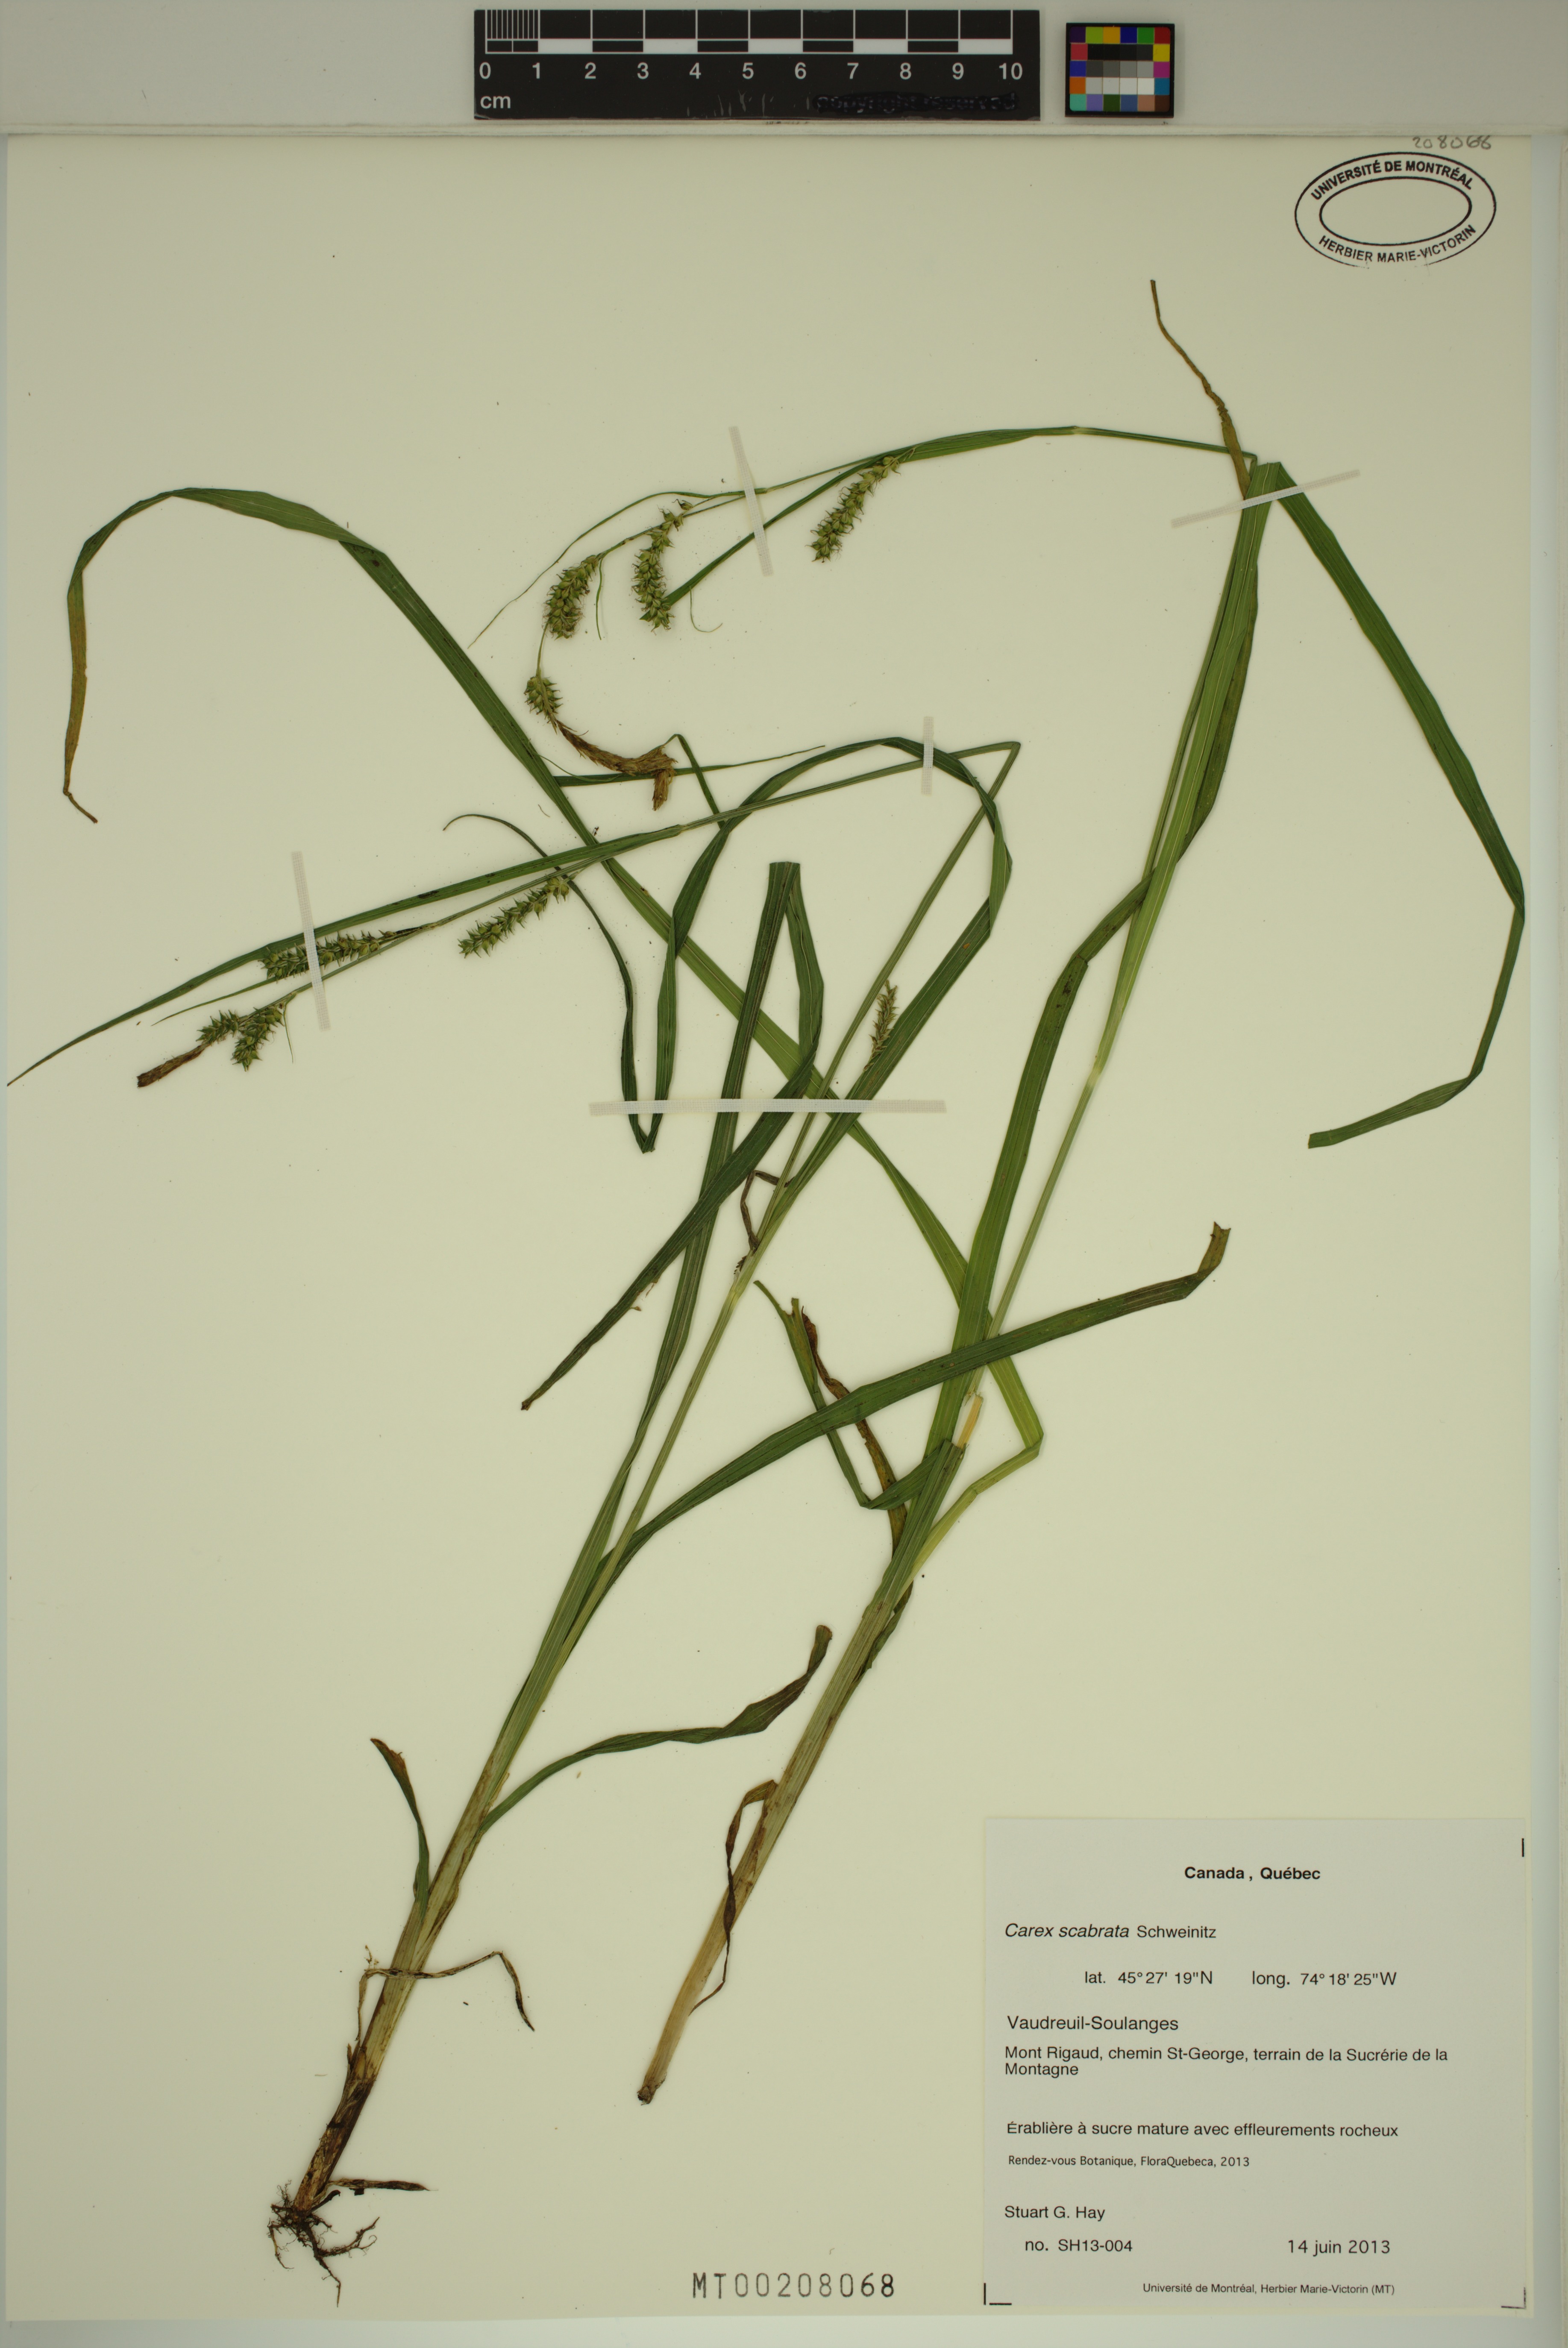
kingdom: Plantae
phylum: Tracheophyta
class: Liliopsida
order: Poales
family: Cyperaceae
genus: Carex
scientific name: Carex scabrata
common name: Eastern rough sedge
